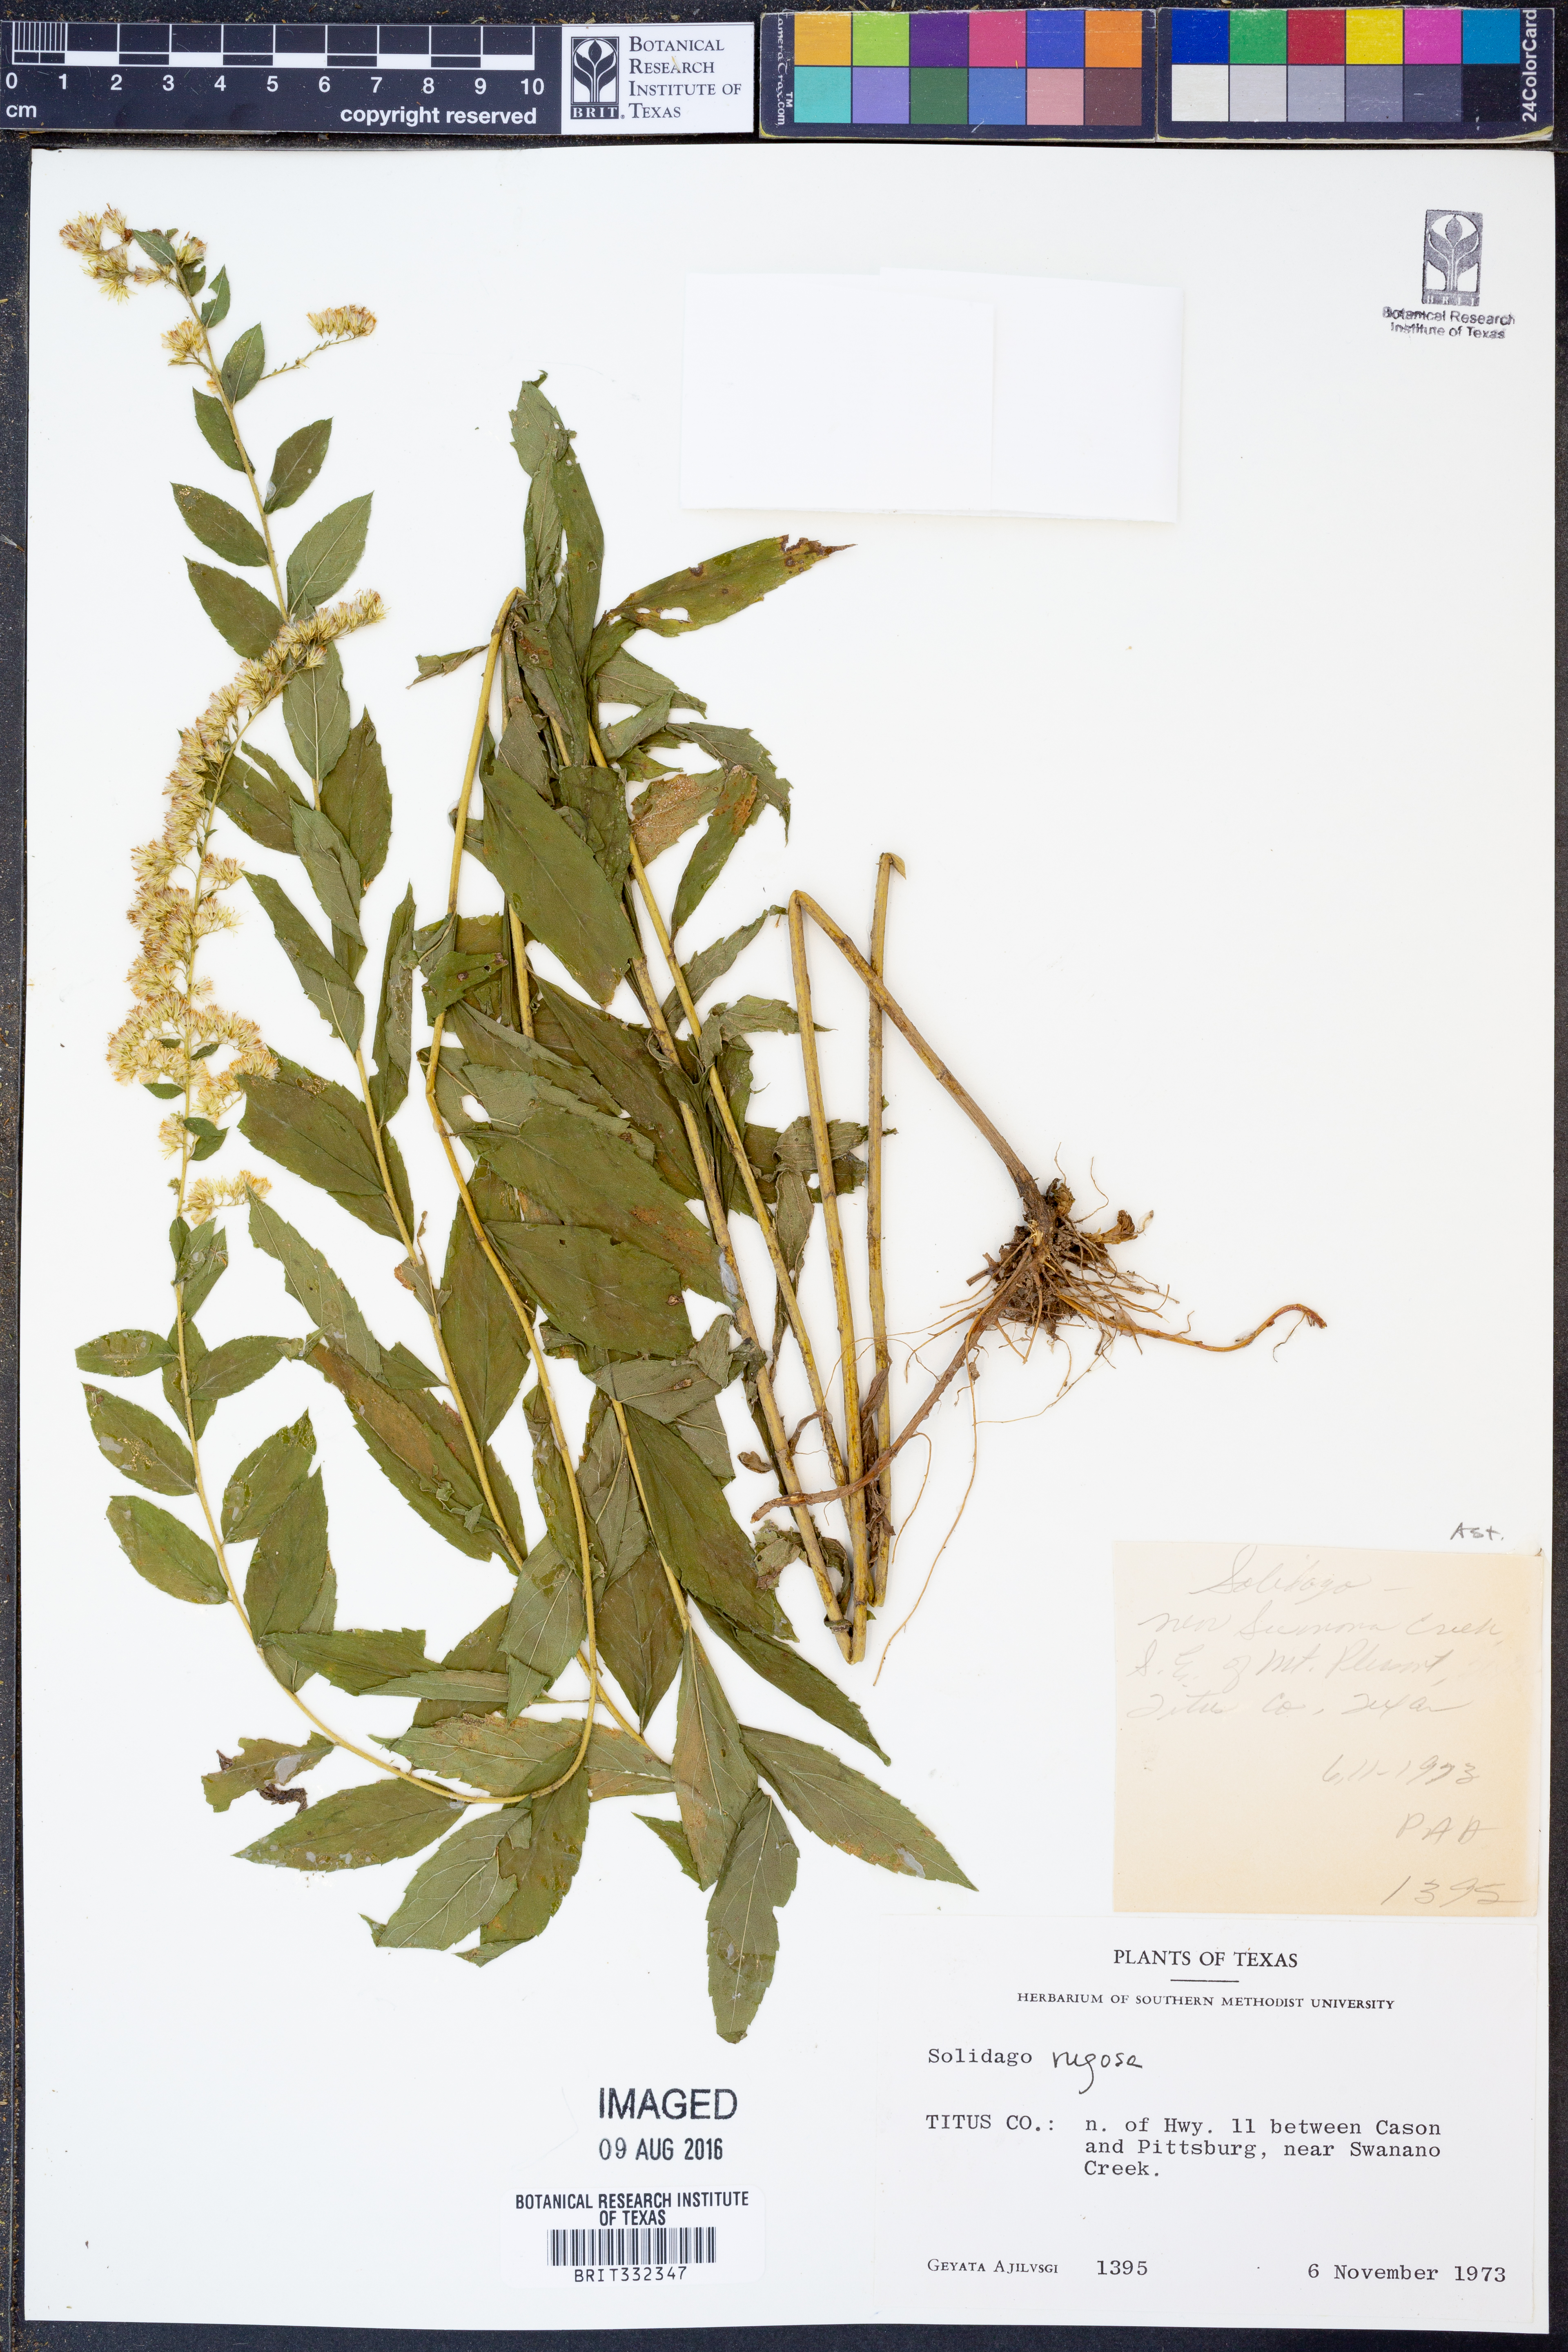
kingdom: Plantae
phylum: Tracheophyta
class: Magnoliopsida
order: Asterales
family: Asteraceae
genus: Solidago
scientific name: Solidago rugosa
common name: Rough-stemmed goldenrod
